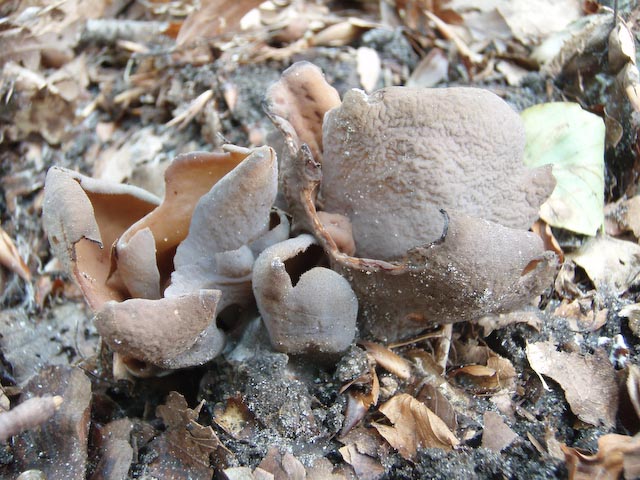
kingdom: Fungi
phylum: Ascomycota
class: Pezizomycetes
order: Pezizales
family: Otideaceae
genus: Otidea
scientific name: Otidea bufonia
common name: brun ørebæger
